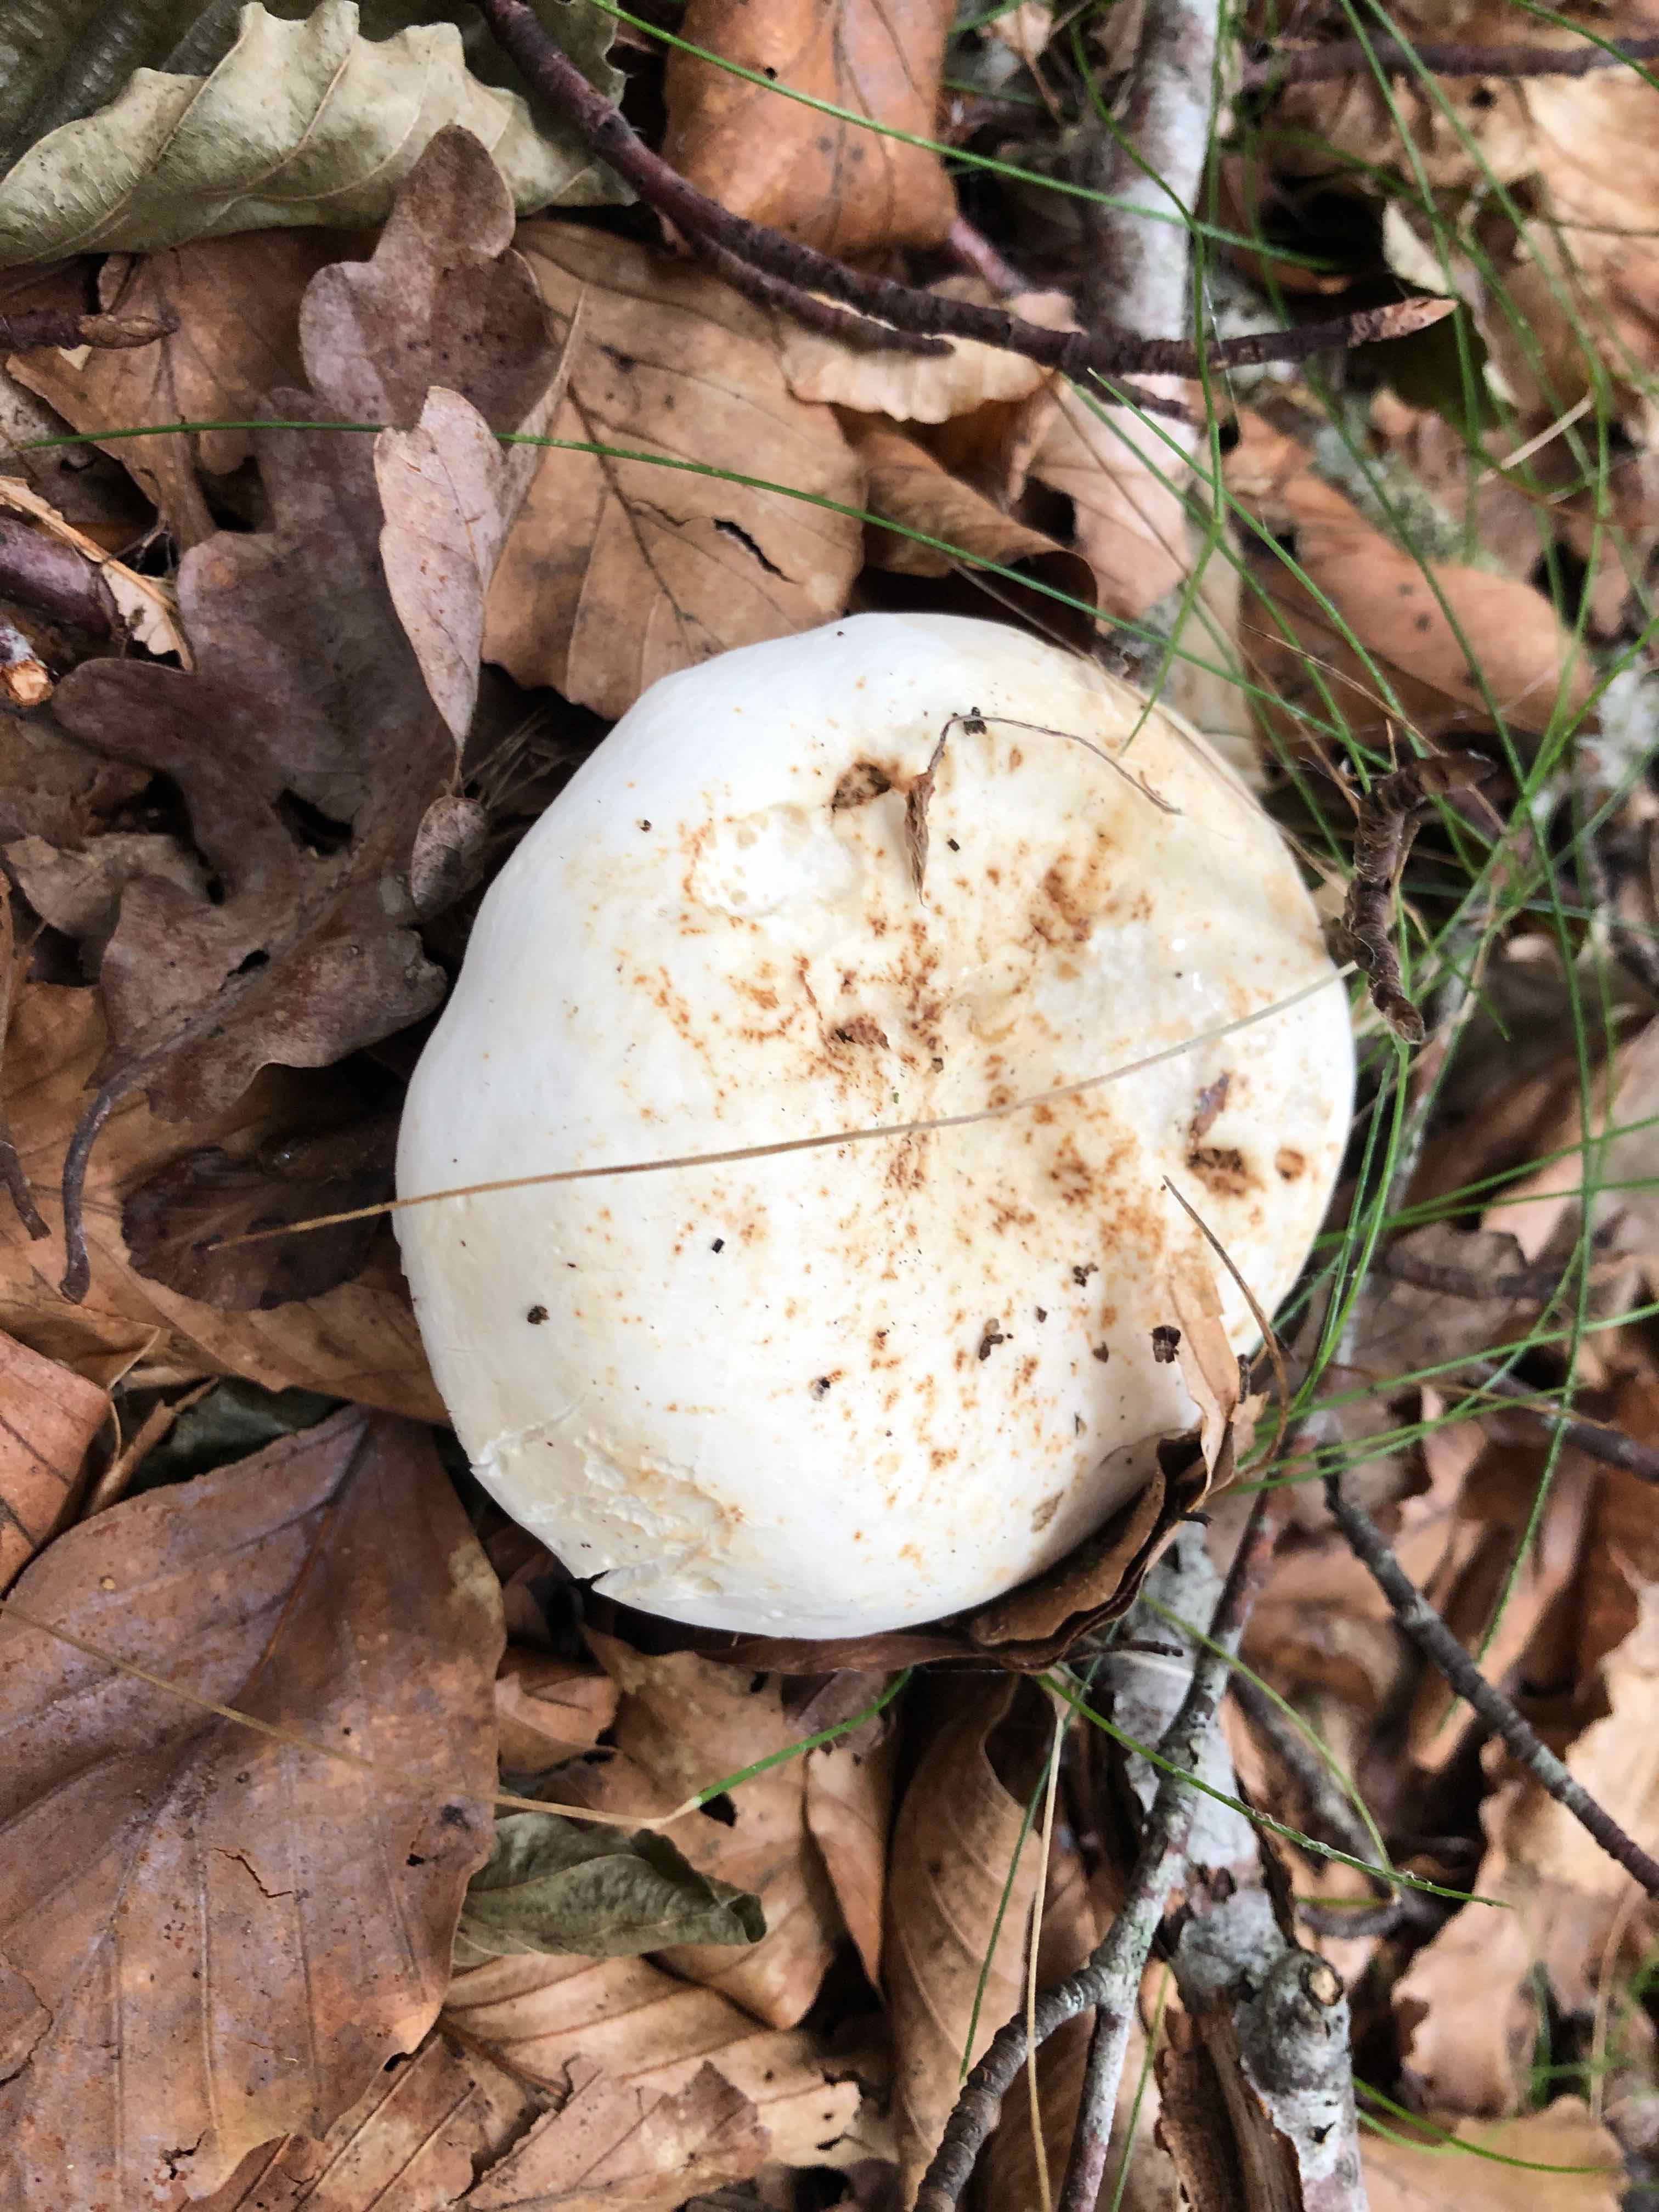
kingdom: Fungi
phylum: Basidiomycota
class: Agaricomycetes
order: Russulales
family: Russulaceae
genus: Lactifluus
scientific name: Lactifluus
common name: mælkehat
